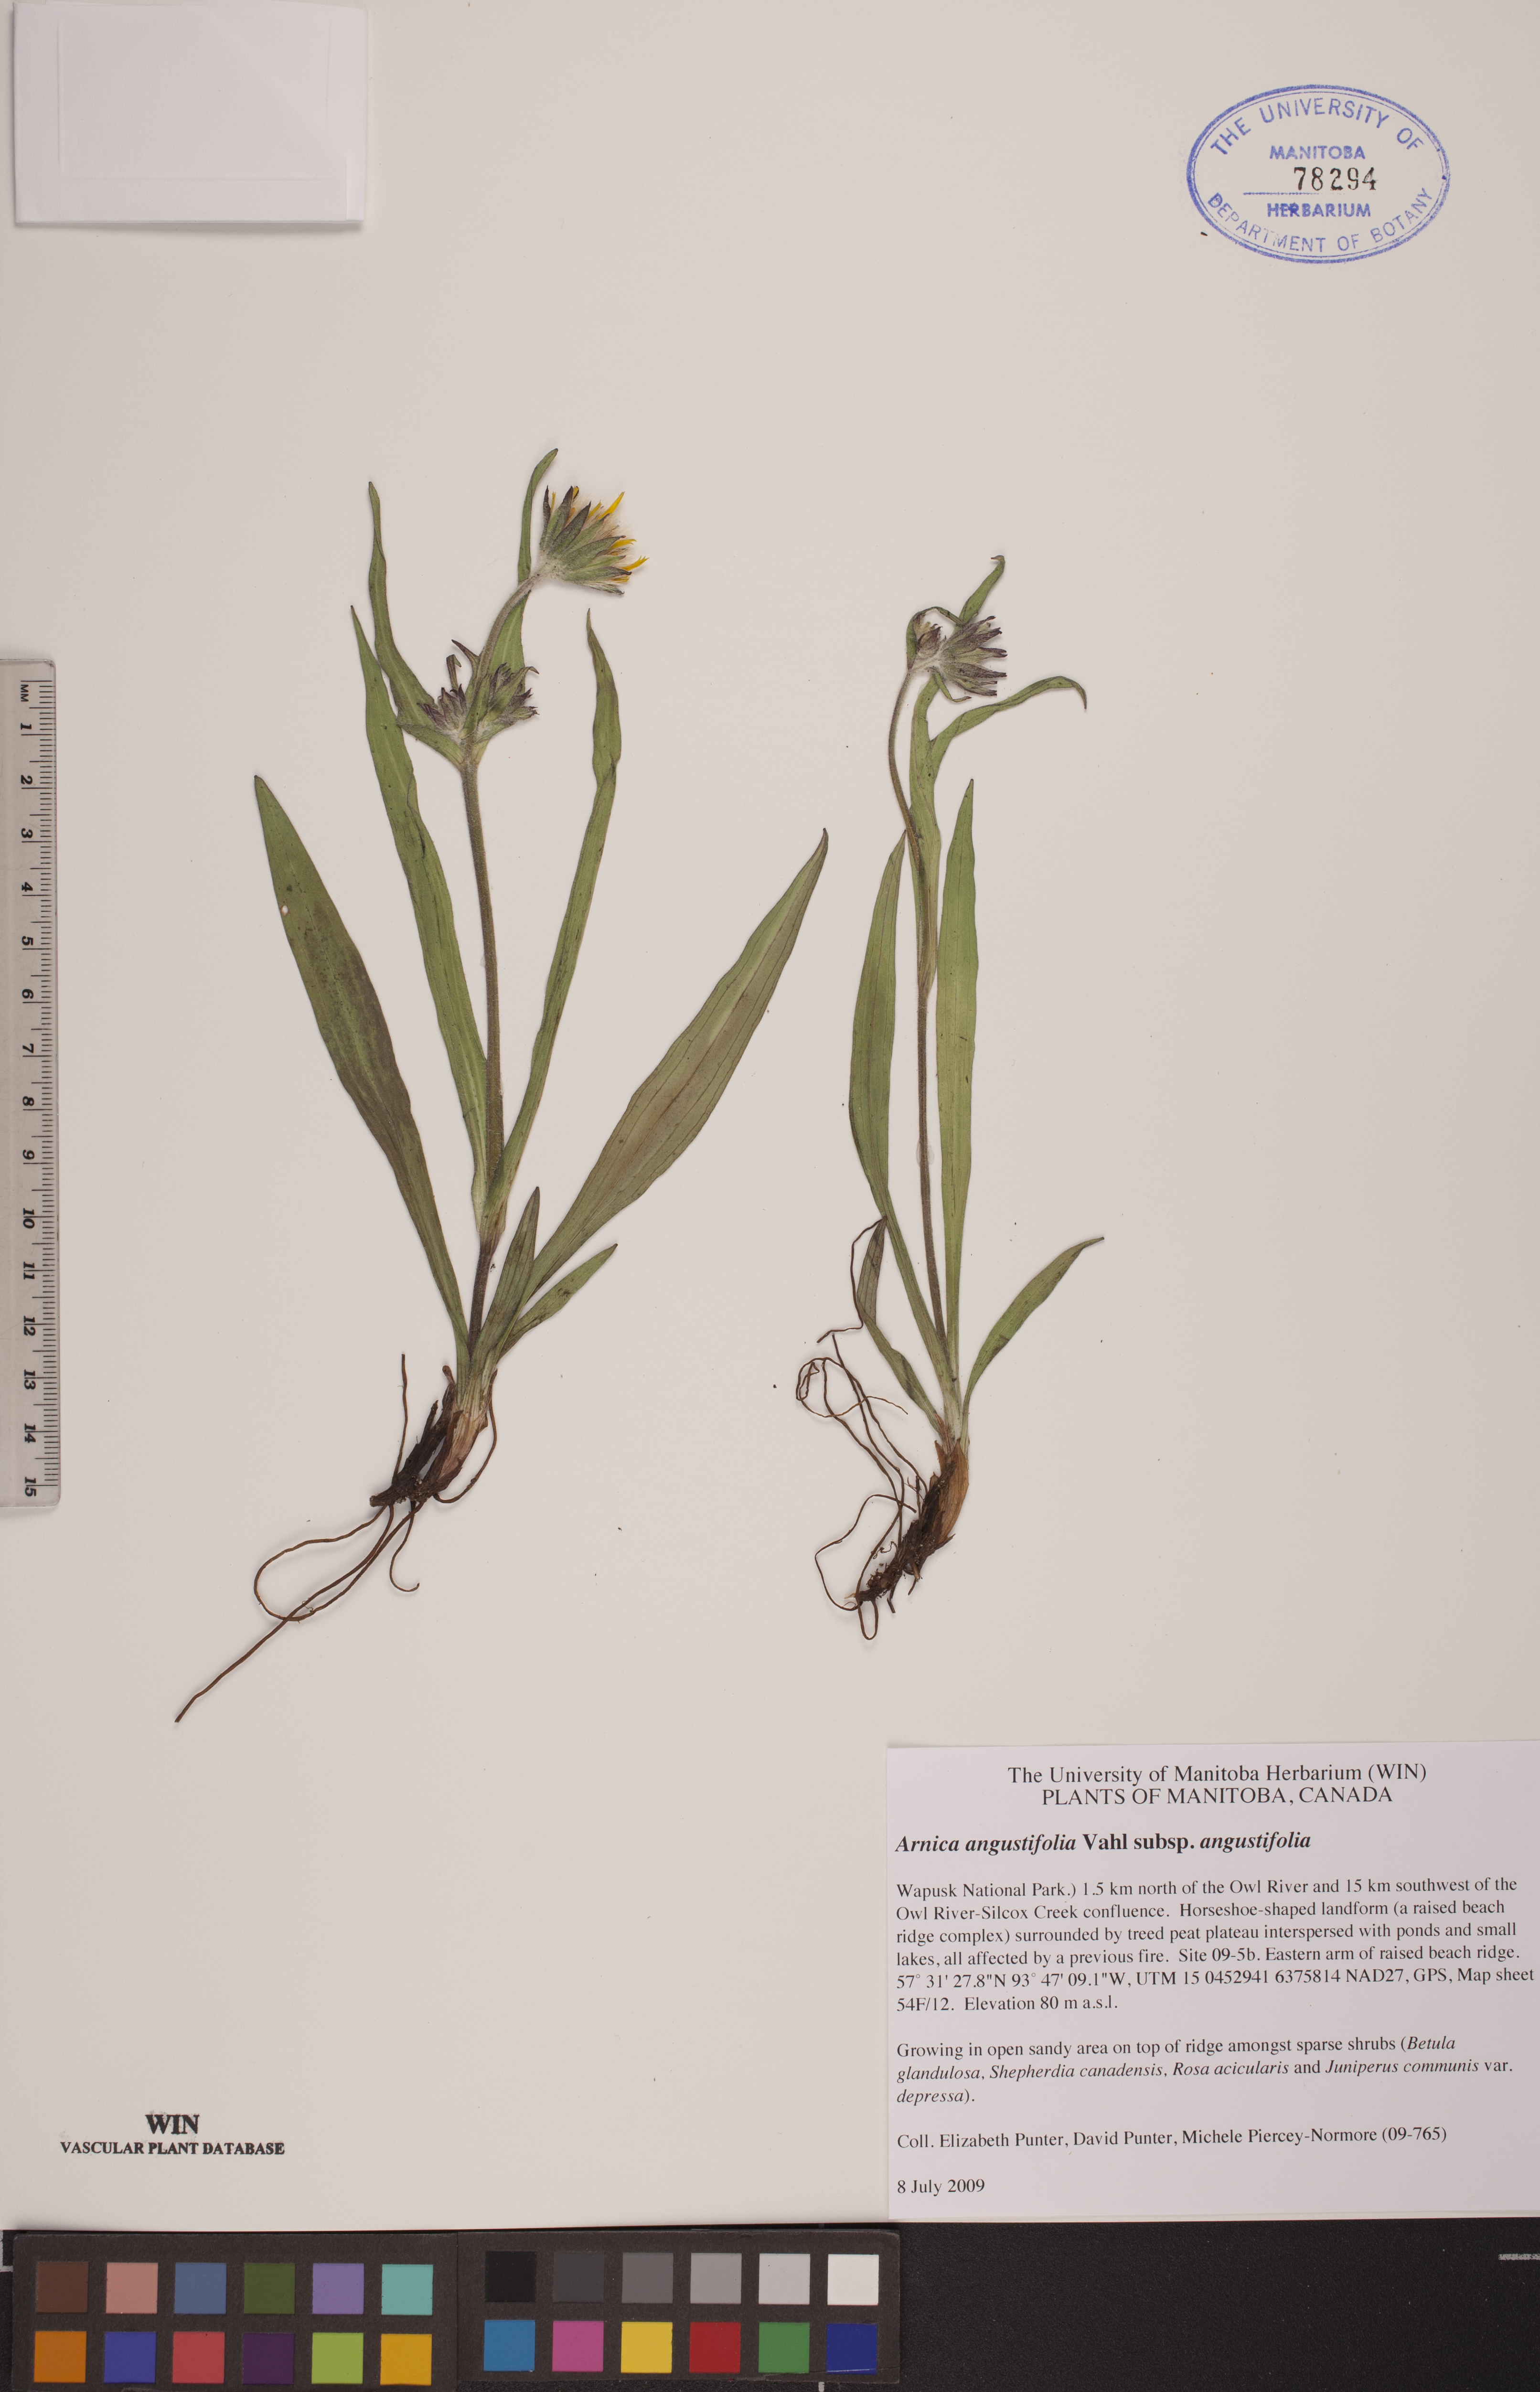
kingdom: Plantae
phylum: Tracheophyta
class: Magnoliopsida
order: Asterales
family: Asteraceae
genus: Arnica
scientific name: Arnica angustifolia
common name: Arctic arnica
